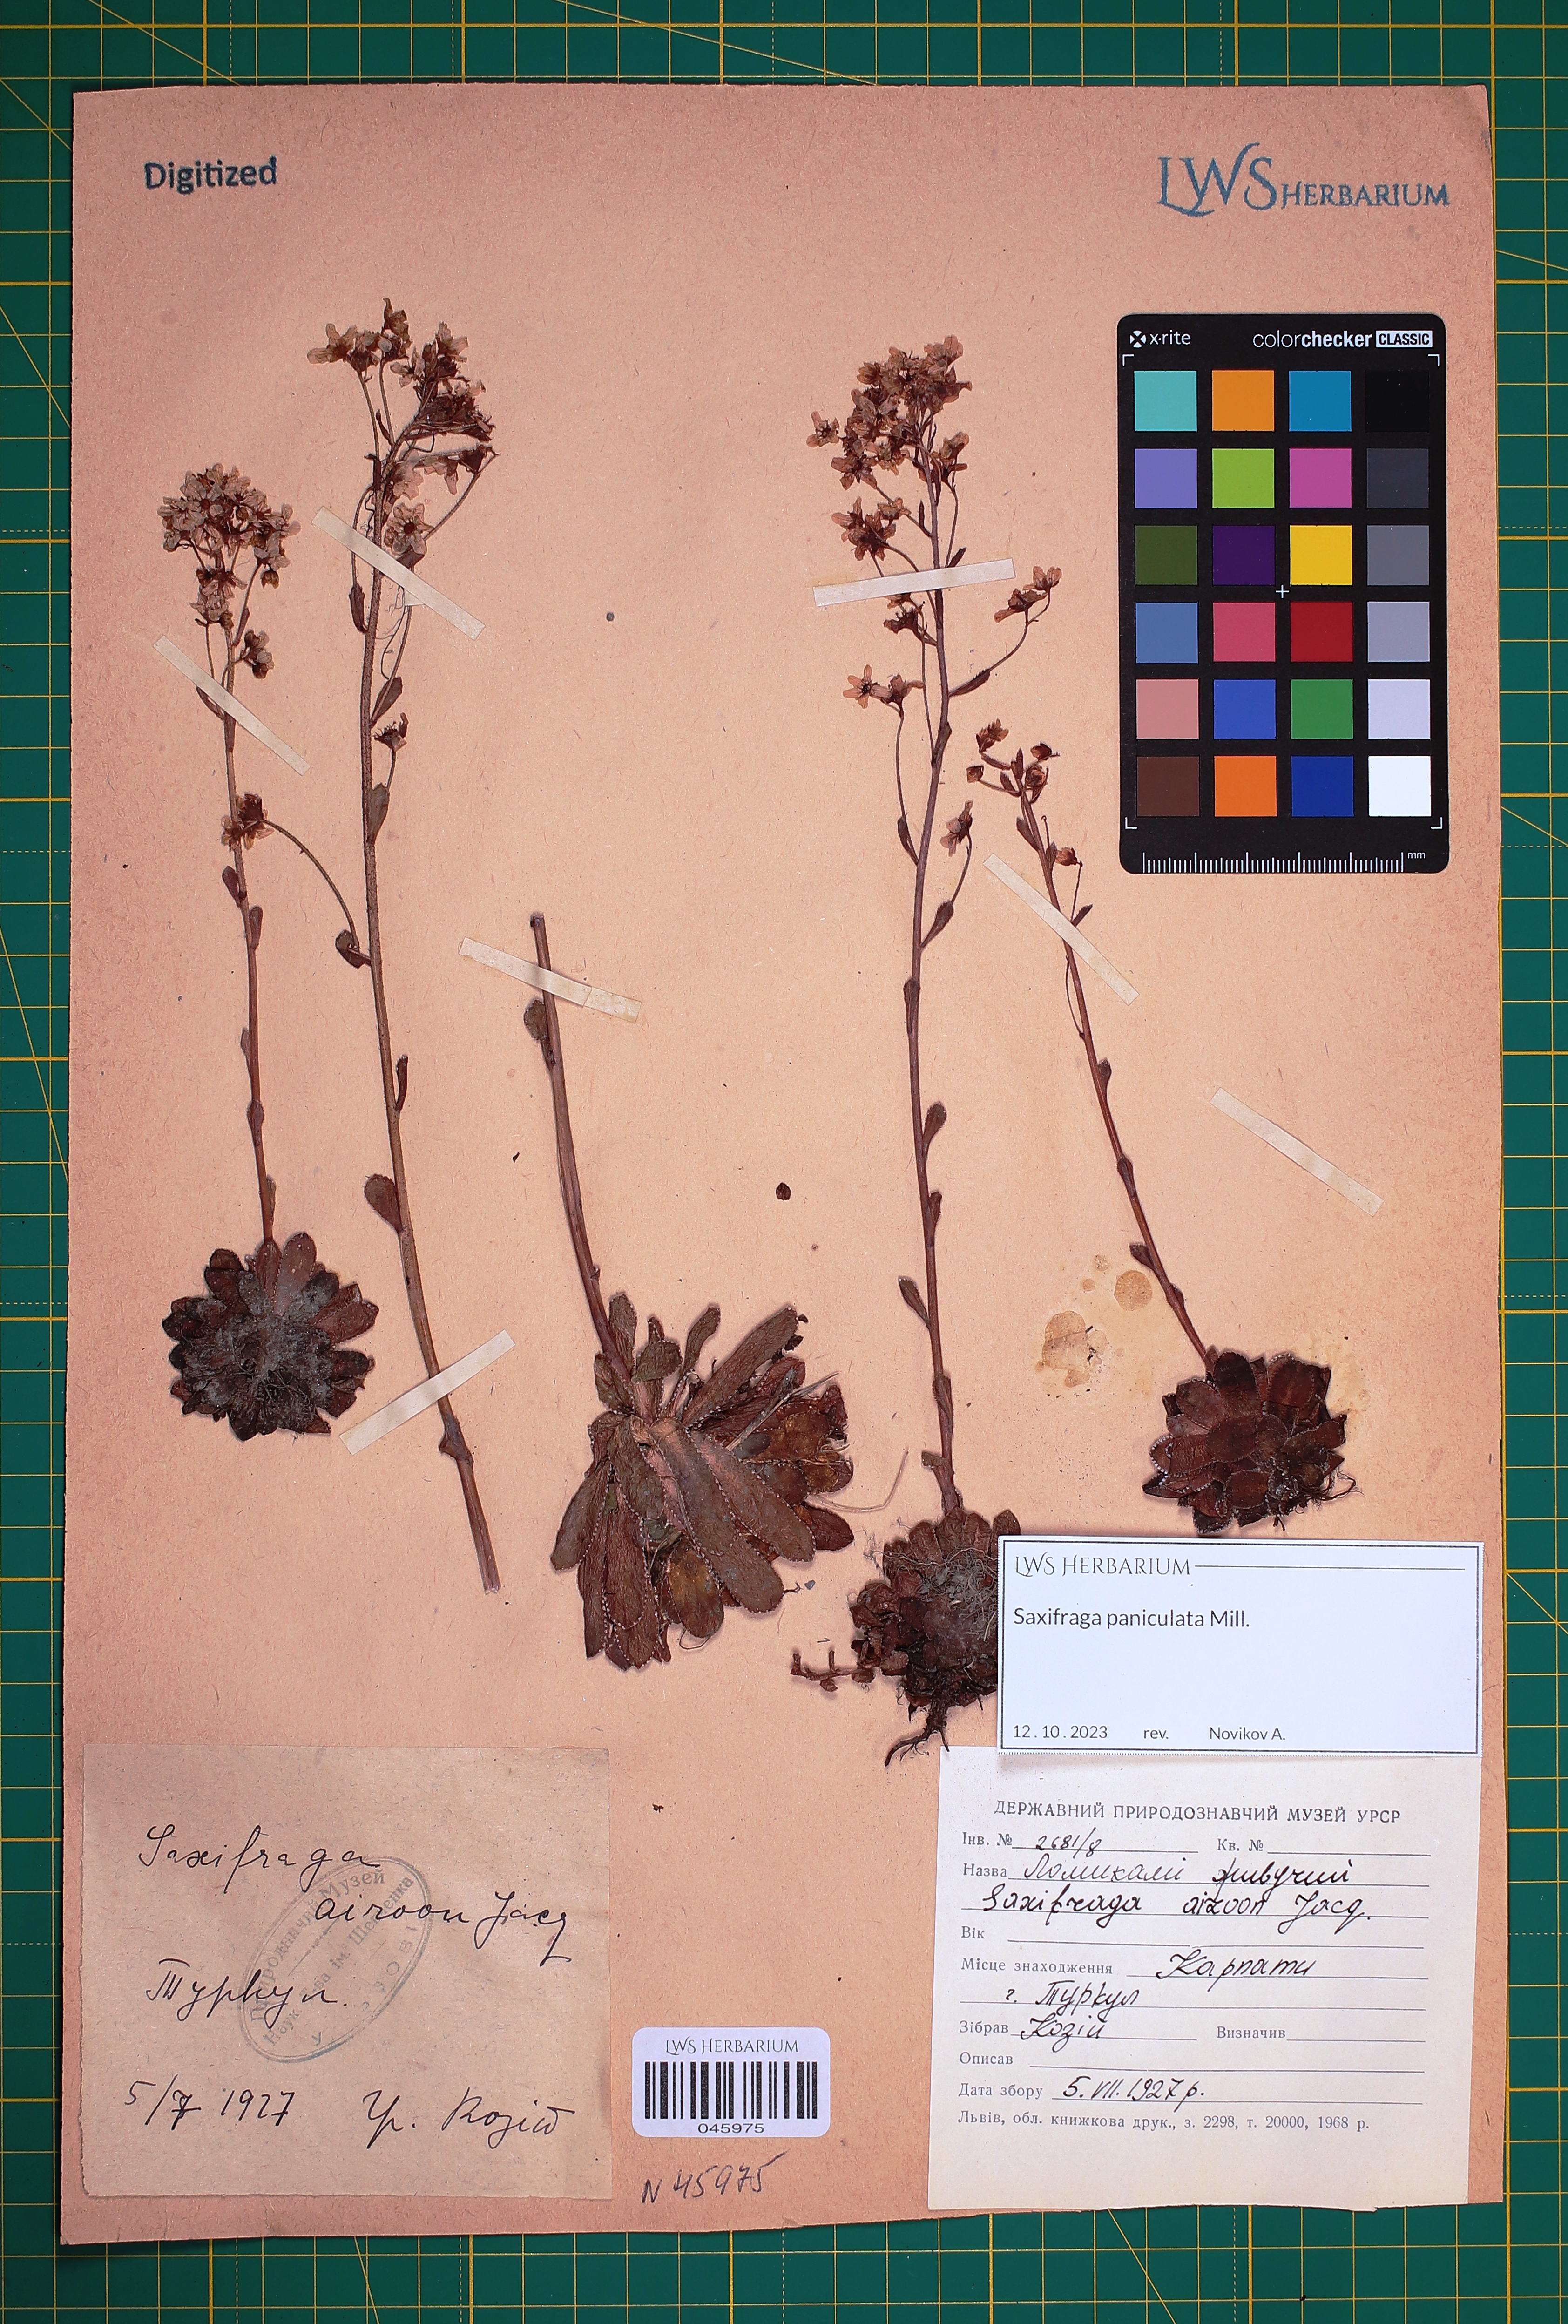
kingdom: Plantae
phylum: Tracheophyta
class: Magnoliopsida
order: Saxifragales
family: Saxifragaceae
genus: Saxifraga
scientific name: Saxifraga paniculata
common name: Livelong saxifrage
